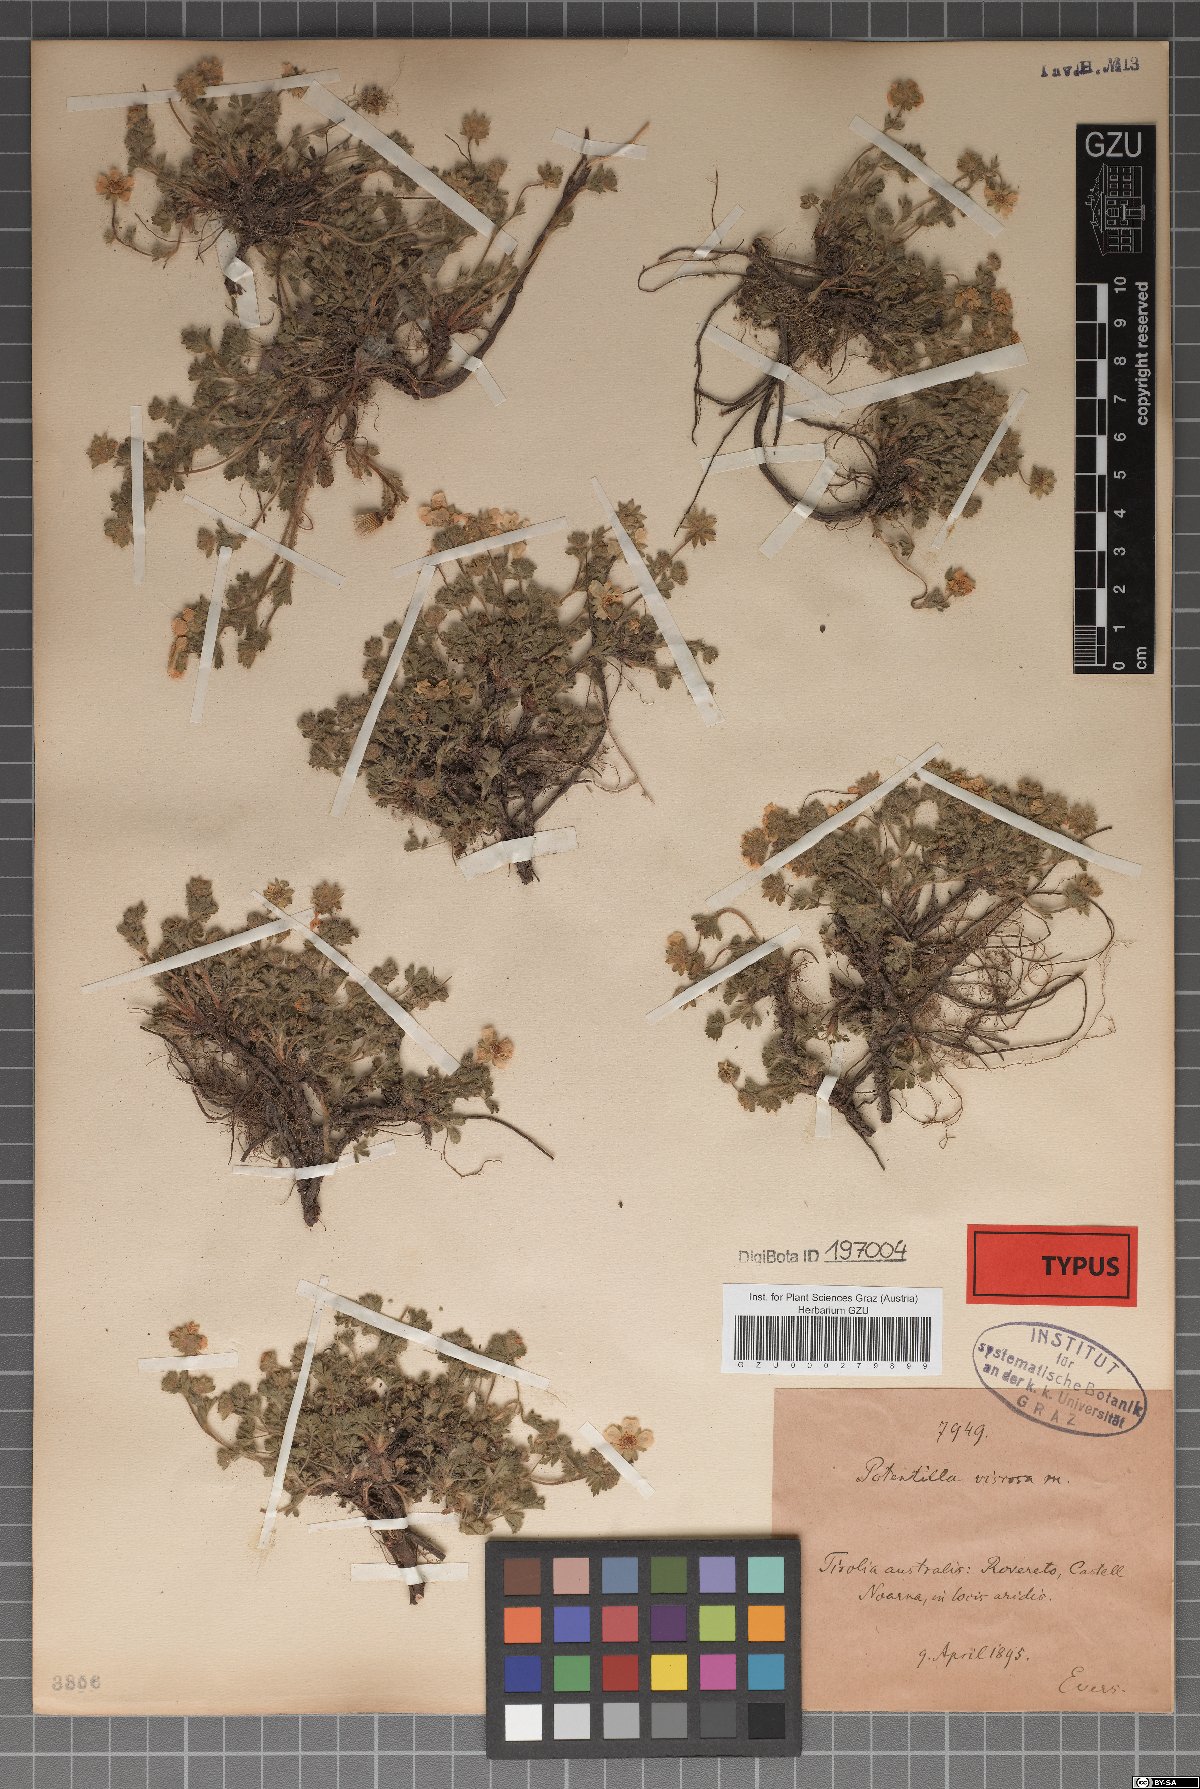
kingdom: Plantae
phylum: Tracheophyta
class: Magnoliopsida
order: Rosales
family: Rosaceae
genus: Potentilla
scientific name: Potentilla pusilla
